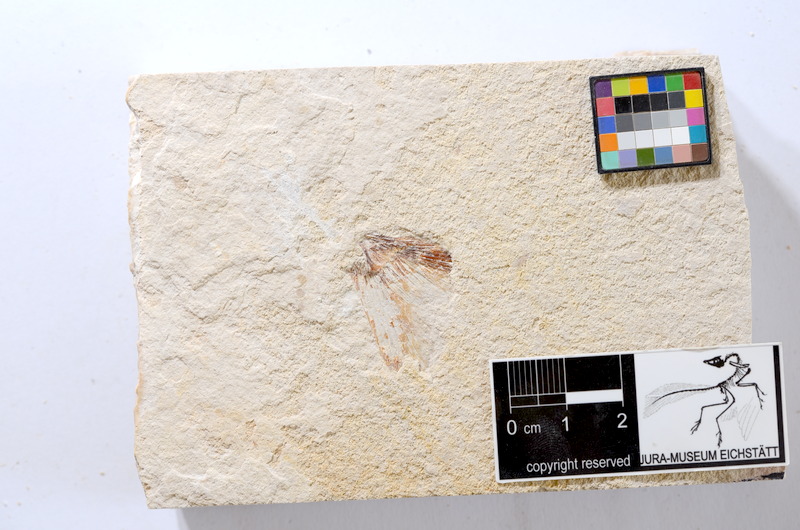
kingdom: Animalia
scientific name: Animalia
